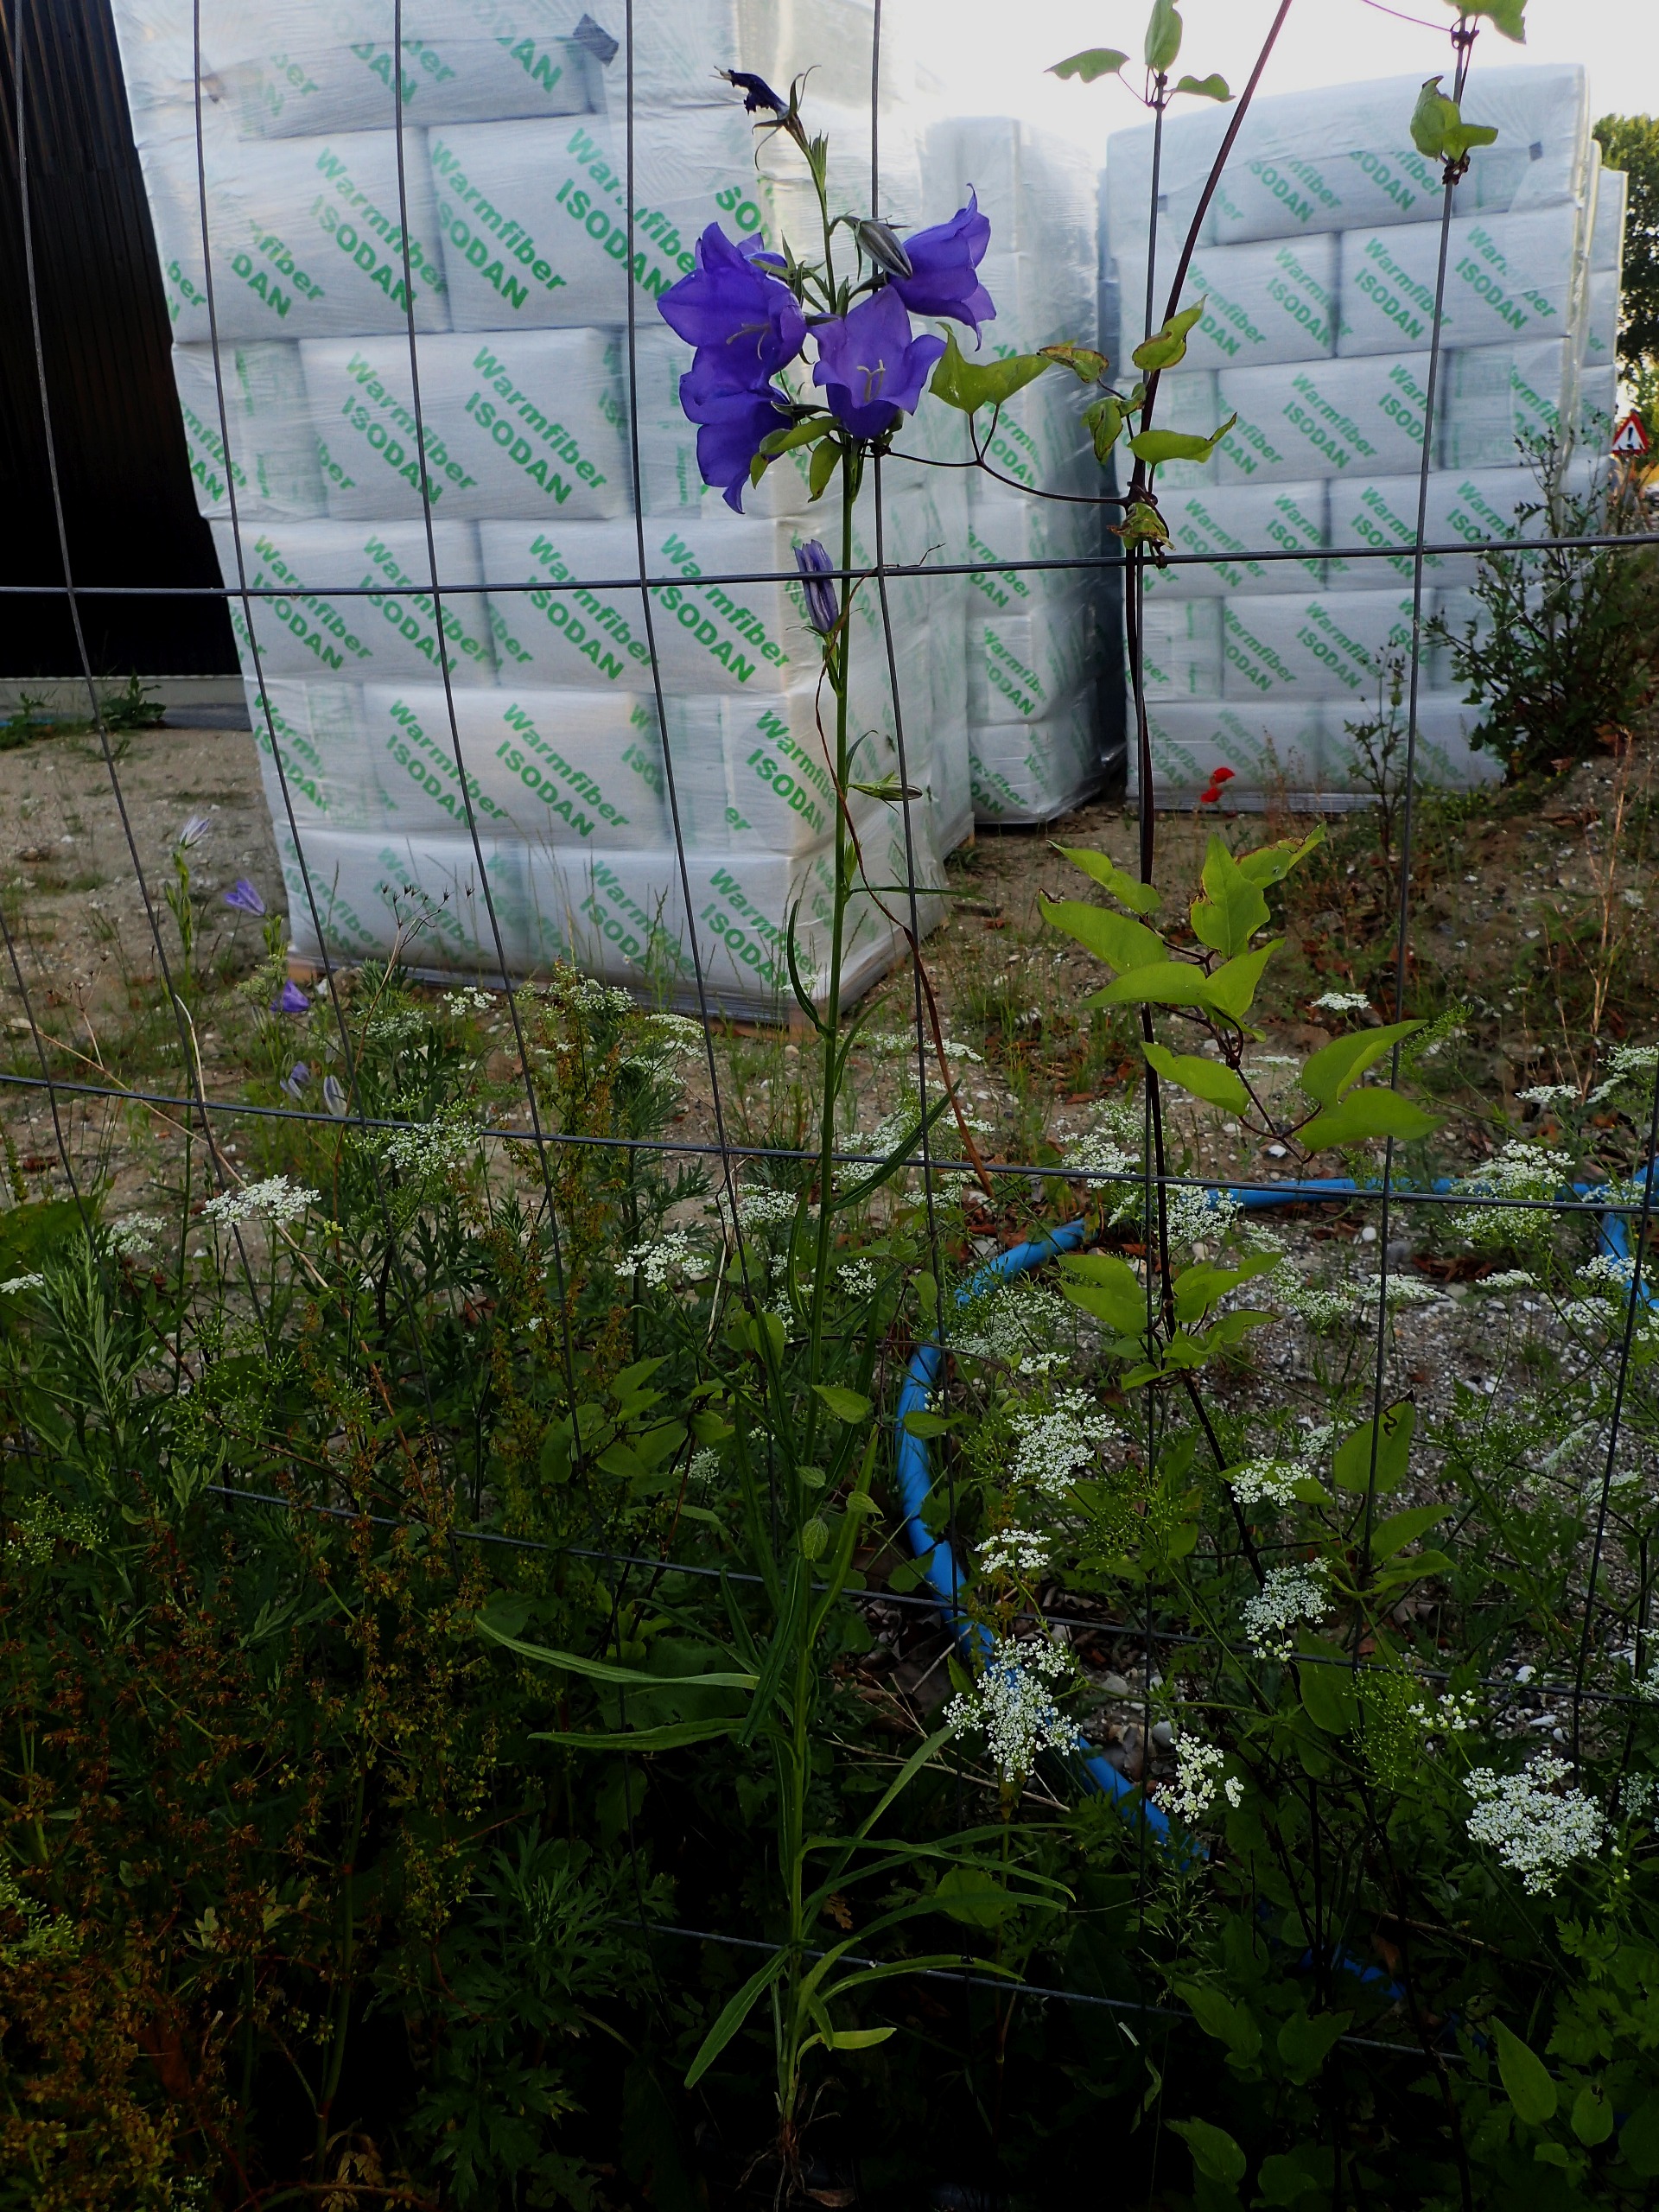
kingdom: Plantae
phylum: Tracheophyta
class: Magnoliopsida
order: Asterales
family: Campanulaceae
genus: Campanula
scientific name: Campanula persicifolia
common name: Smalbladet klokke
